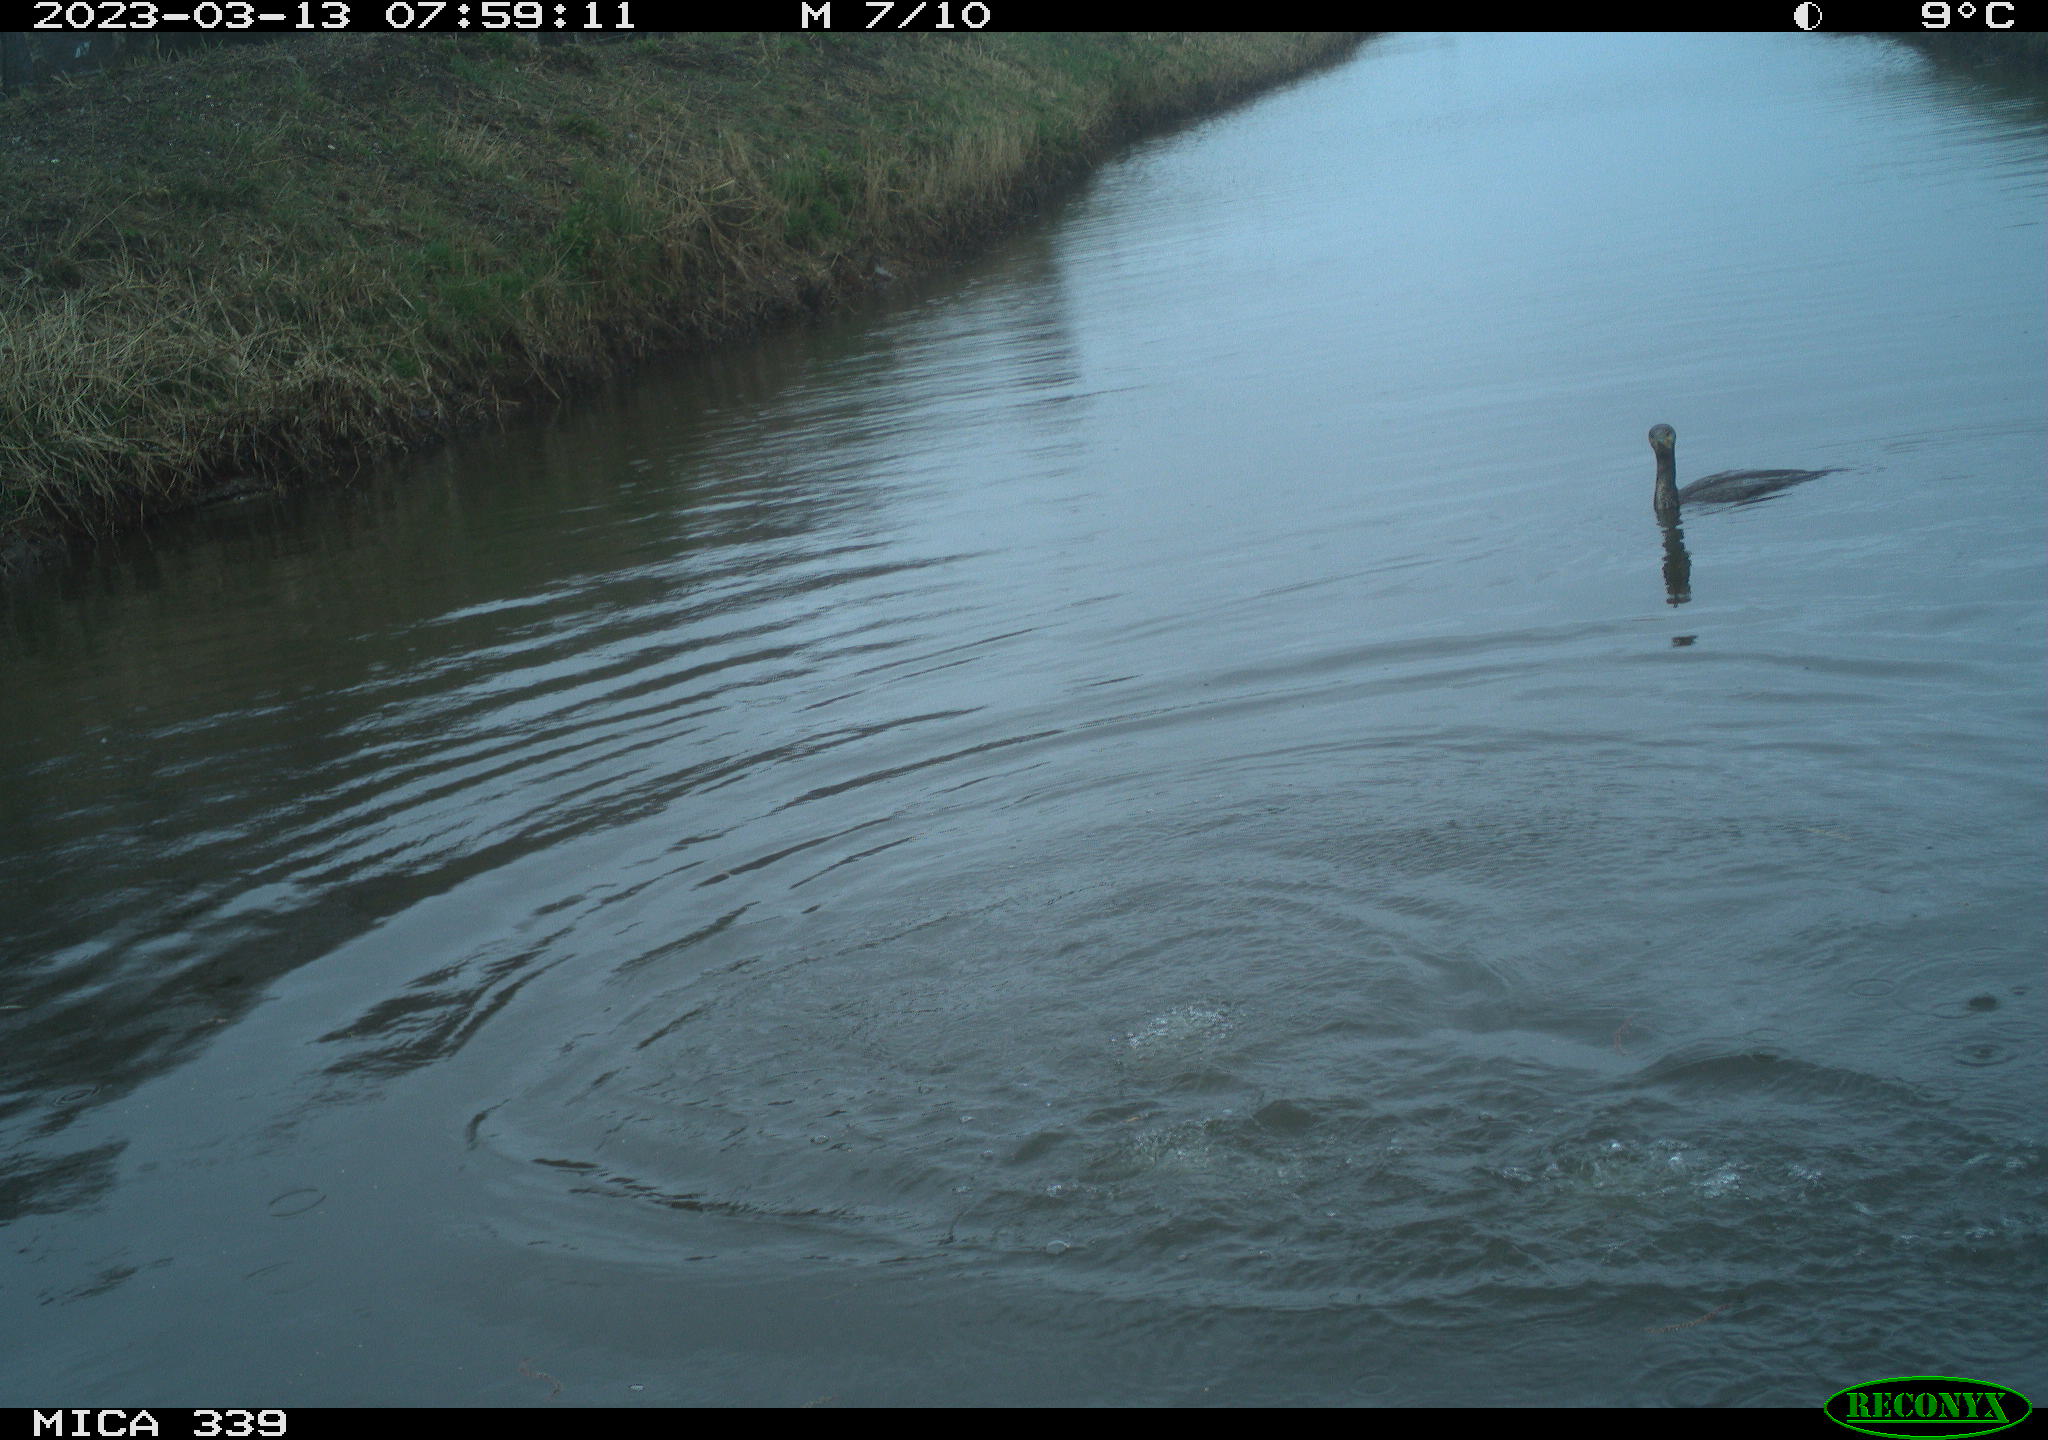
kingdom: Animalia
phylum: Chordata
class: Aves
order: Pelecaniformes
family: Ardeidae
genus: Ardea
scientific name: Ardea cinerea
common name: Grey heron
